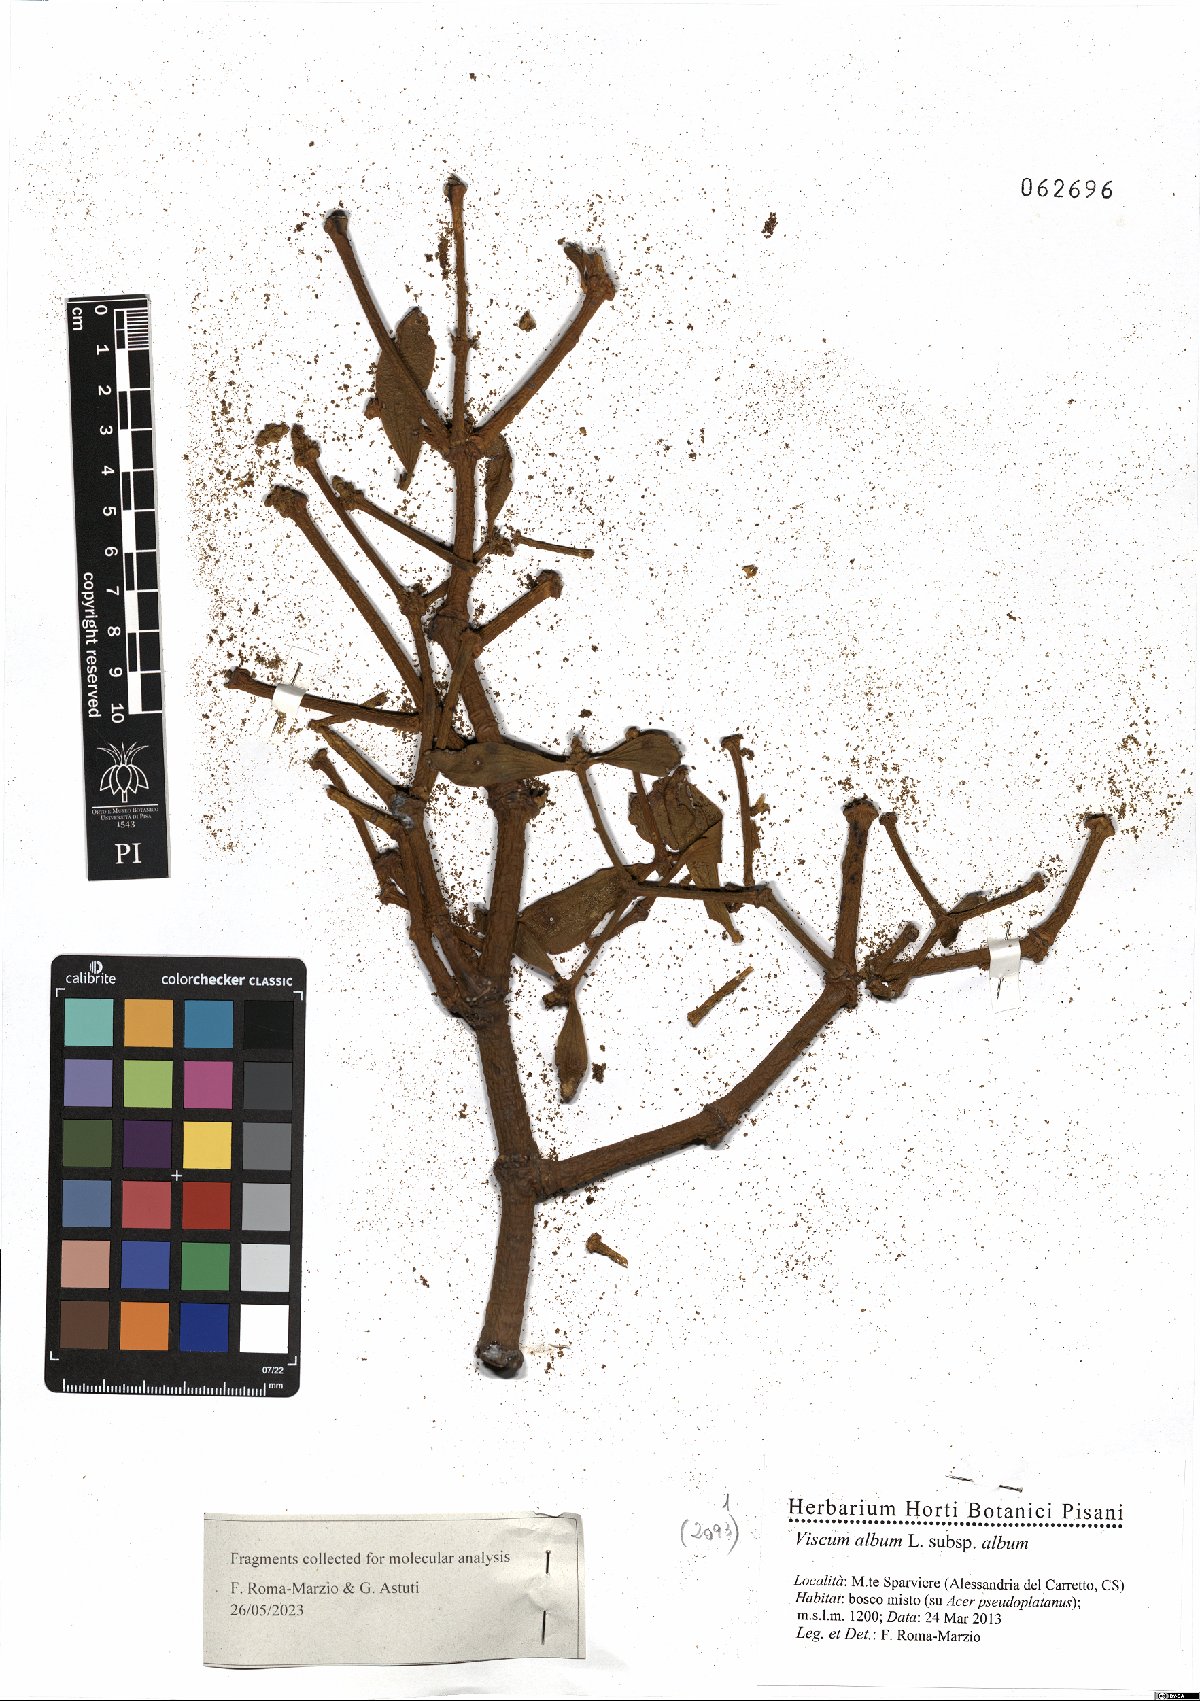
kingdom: Plantae
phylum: Tracheophyta
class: Magnoliopsida
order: Santalales
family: Viscaceae
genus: Viscum
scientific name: Viscum album
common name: Mistletoe
